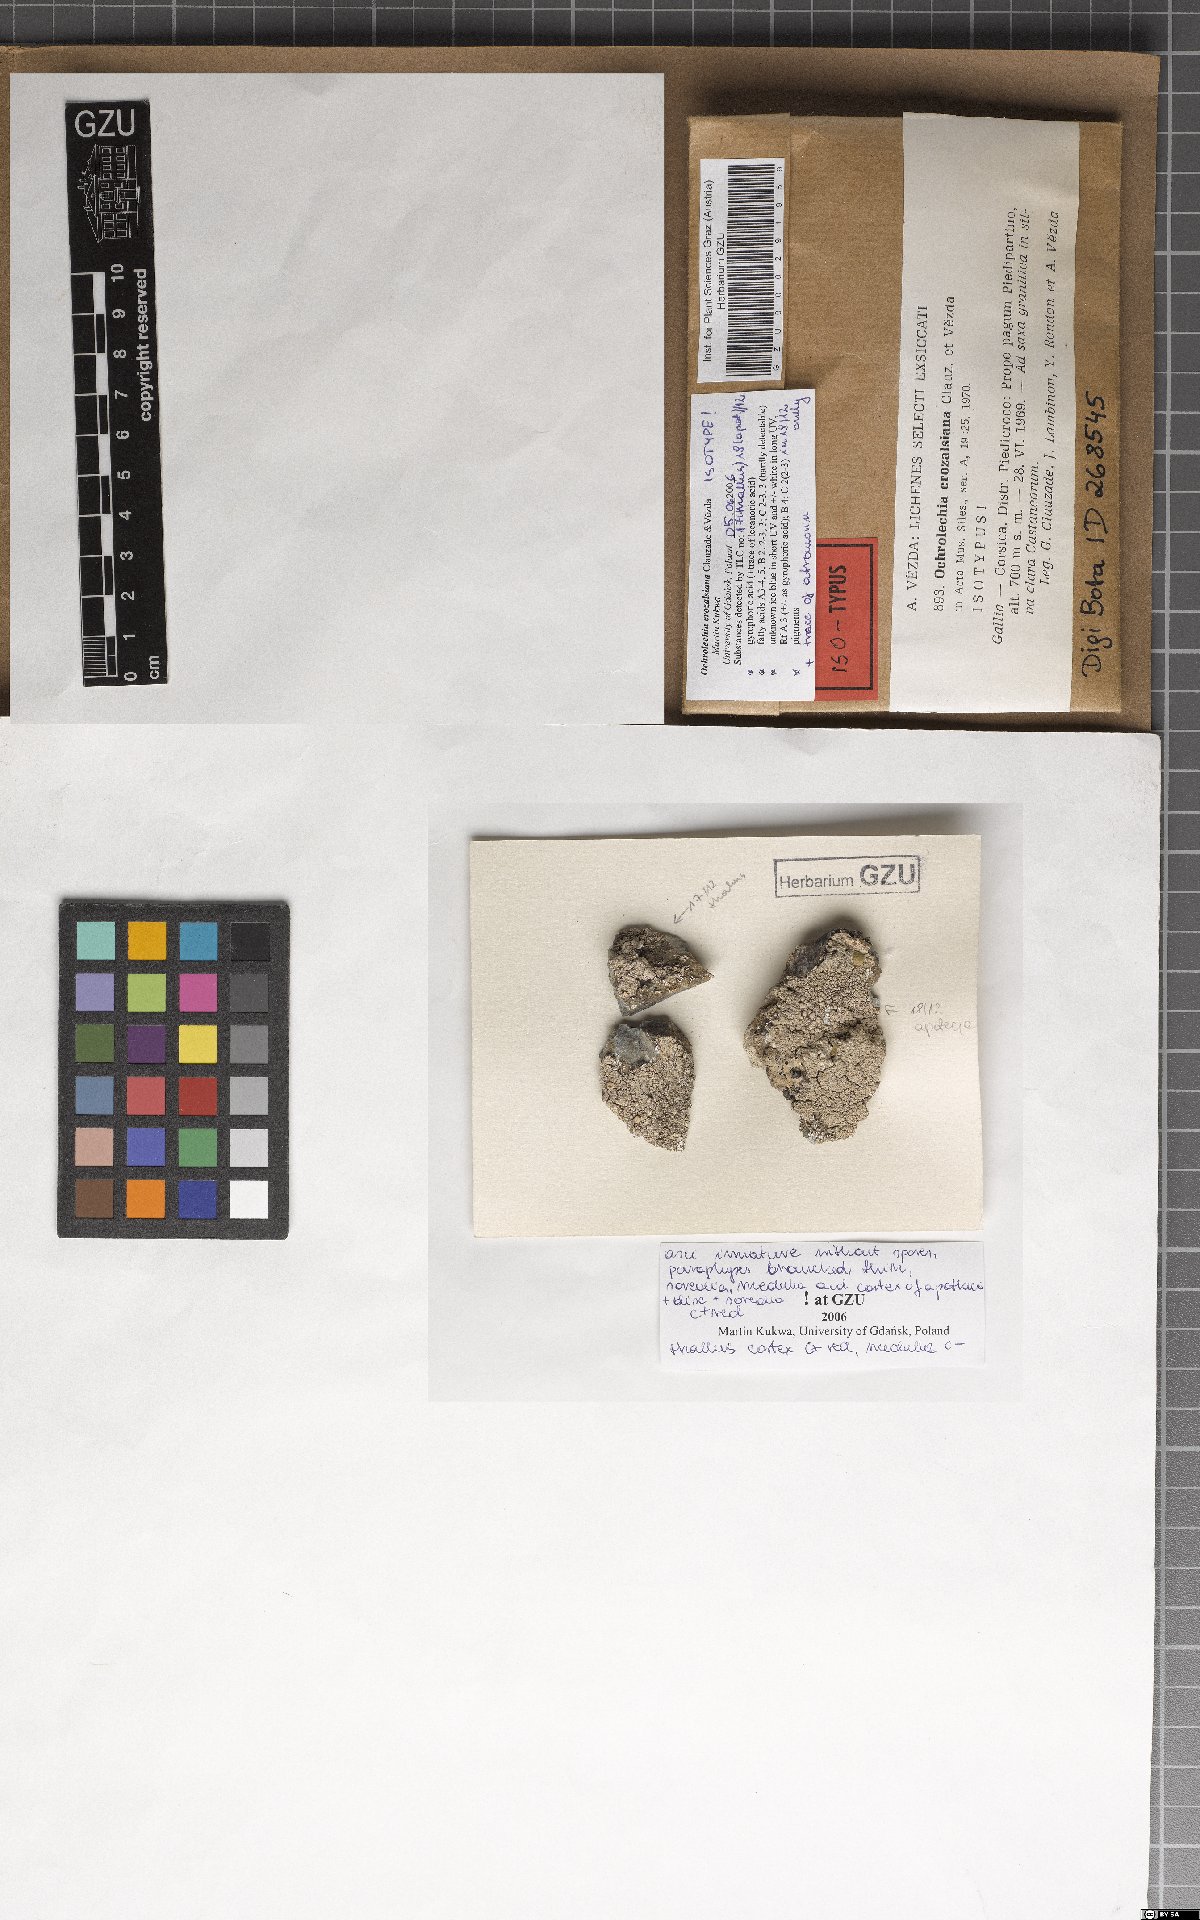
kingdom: Fungi
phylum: Ascomycota
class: Lecanoromycetes
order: Pertusariales
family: Ochrolechiaceae
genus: Ochrolechia
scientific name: Ochrolechia crozalsiana
